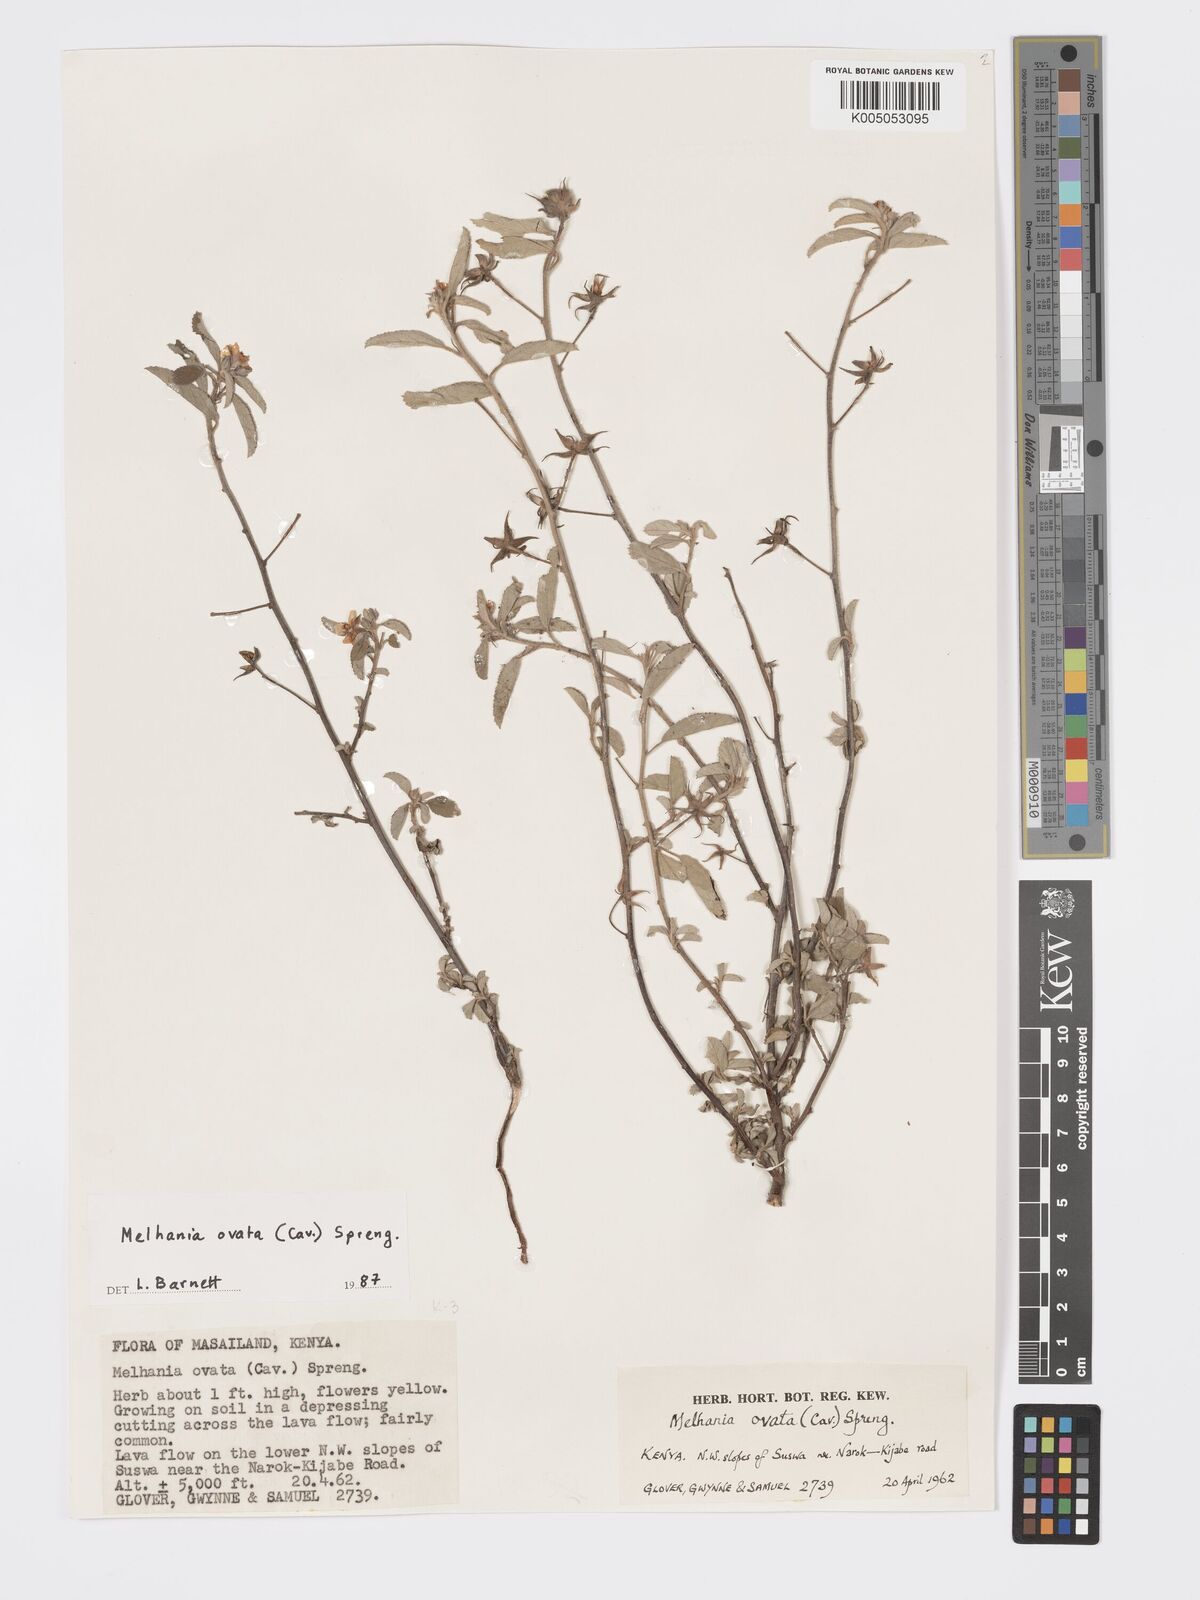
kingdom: Plantae
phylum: Tracheophyta
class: Magnoliopsida
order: Malvales
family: Malvaceae
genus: Melhania
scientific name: Melhania ovata
